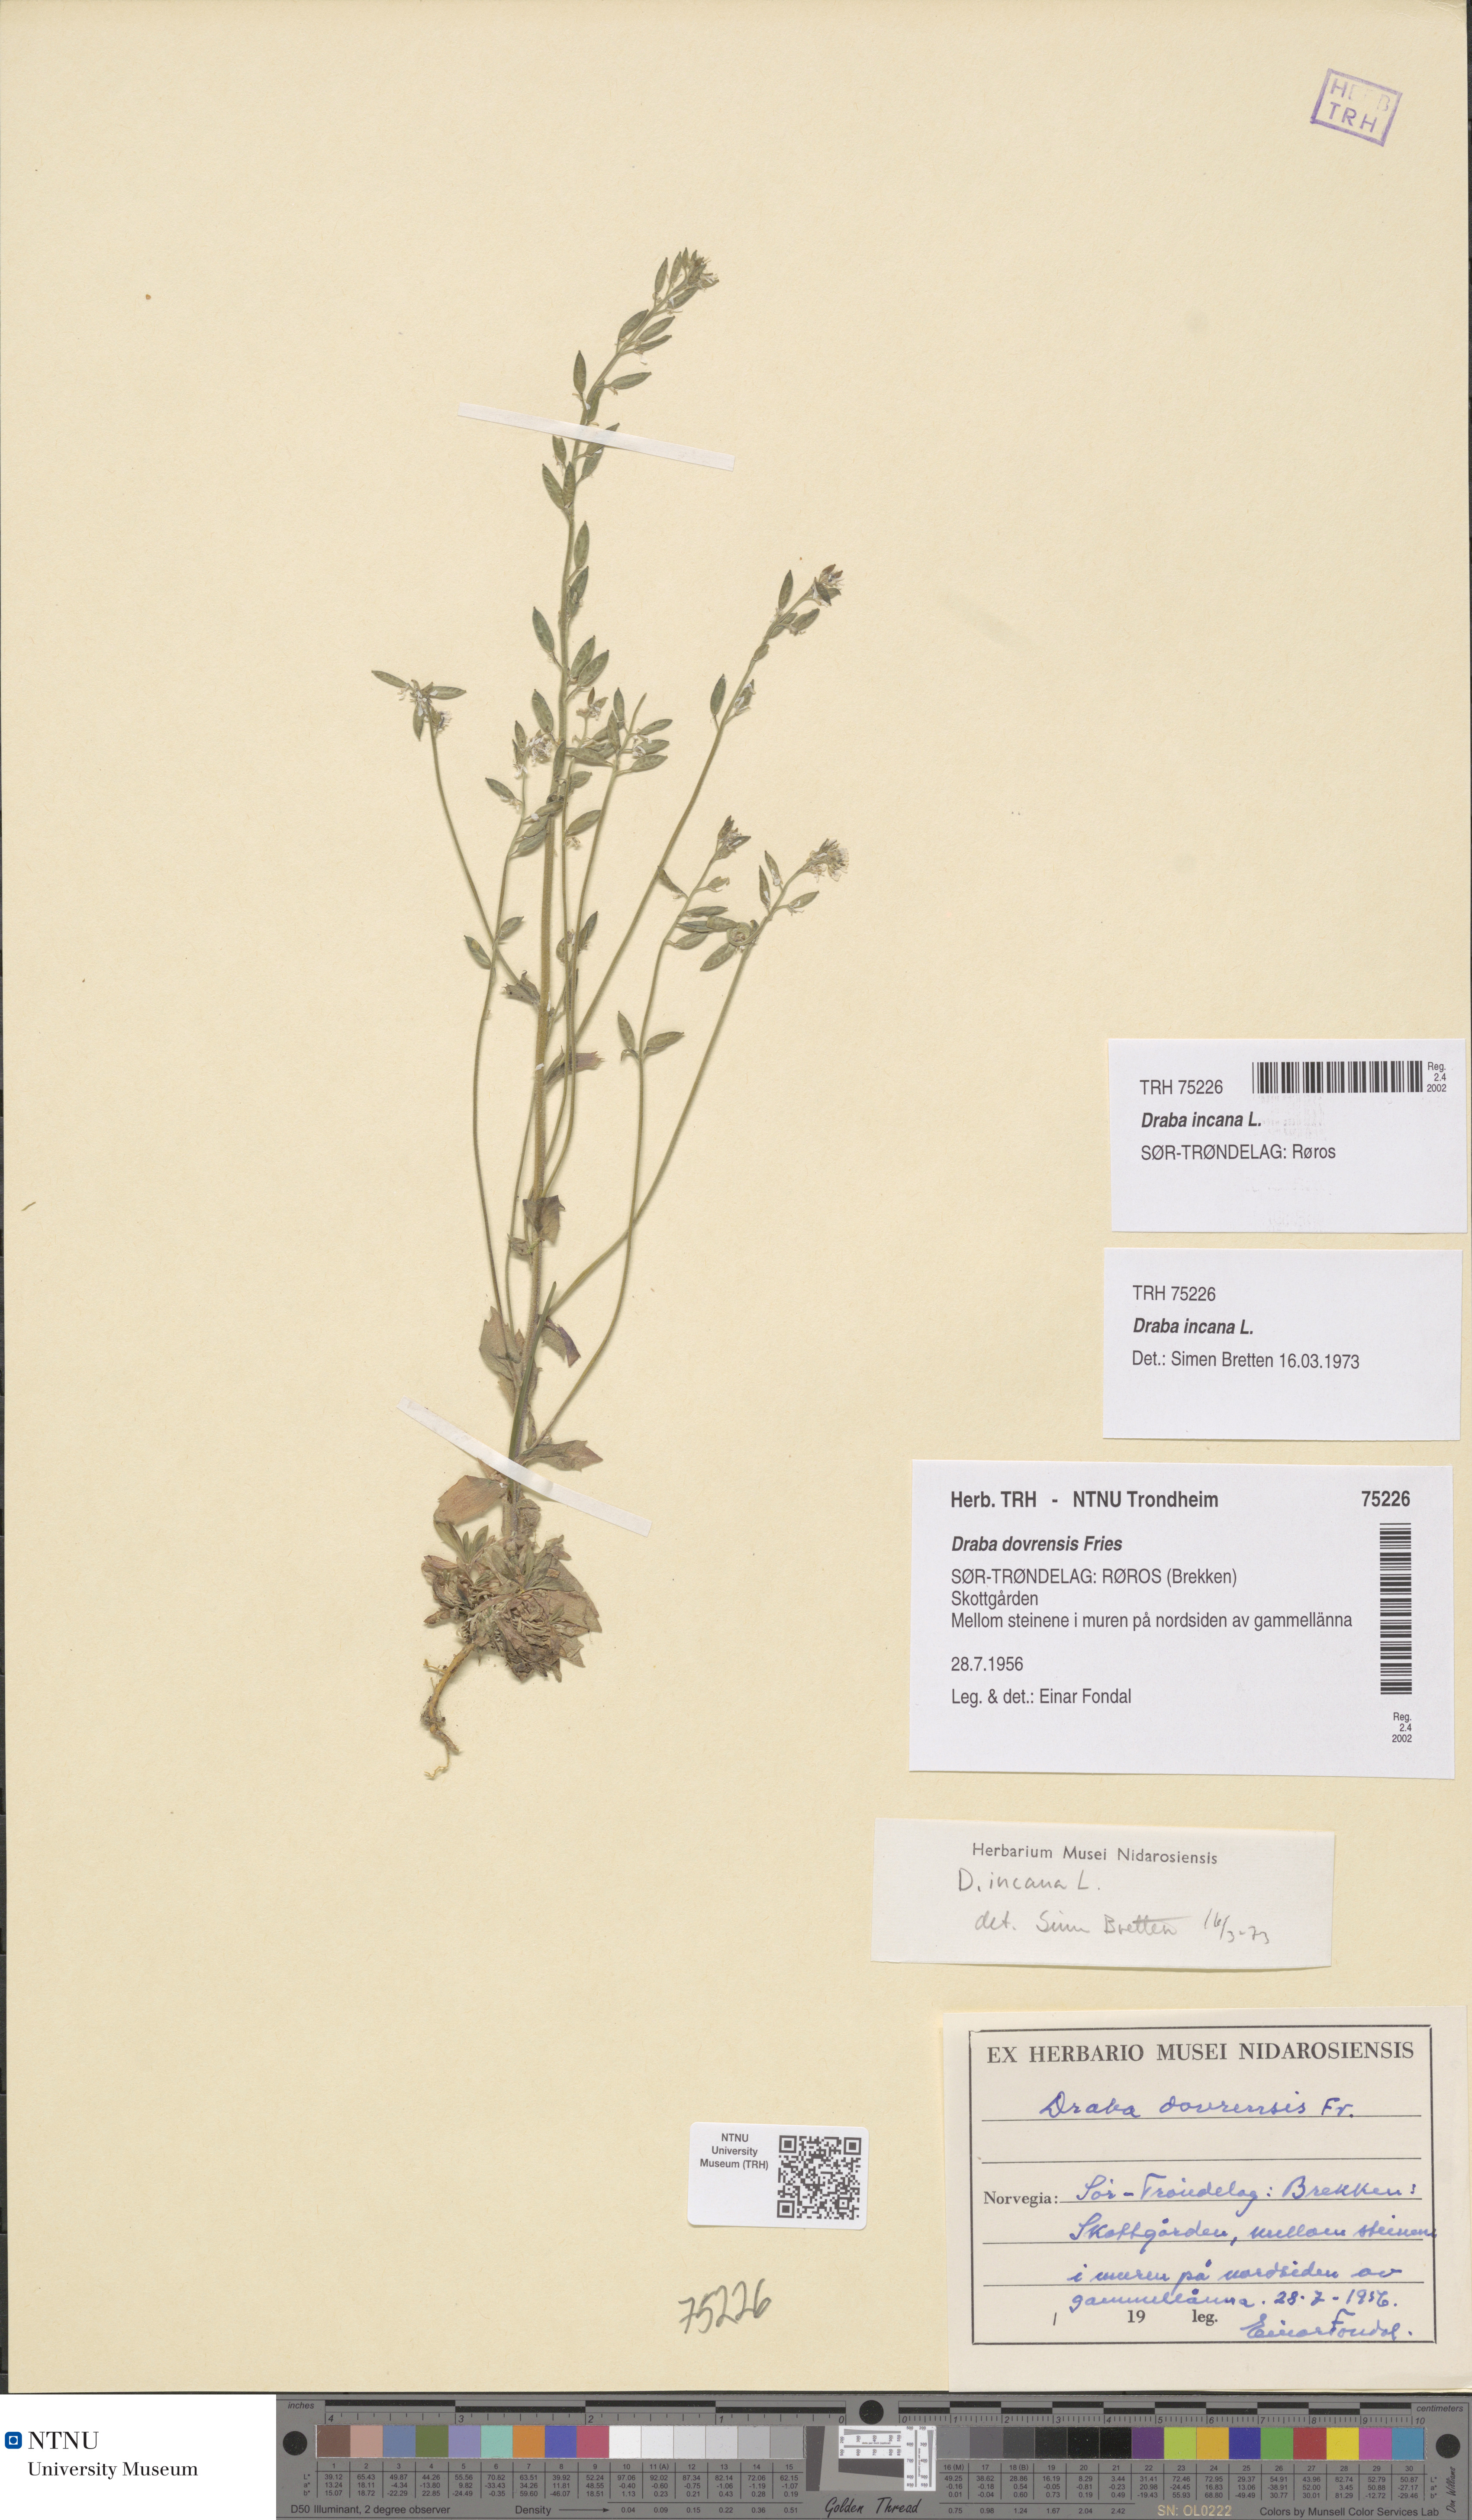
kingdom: Plantae
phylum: Tracheophyta
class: Magnoliopsida
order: Brassicales
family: Brassicaceae
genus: Draba
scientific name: Draba incana
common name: Hoary whitlow-grass
